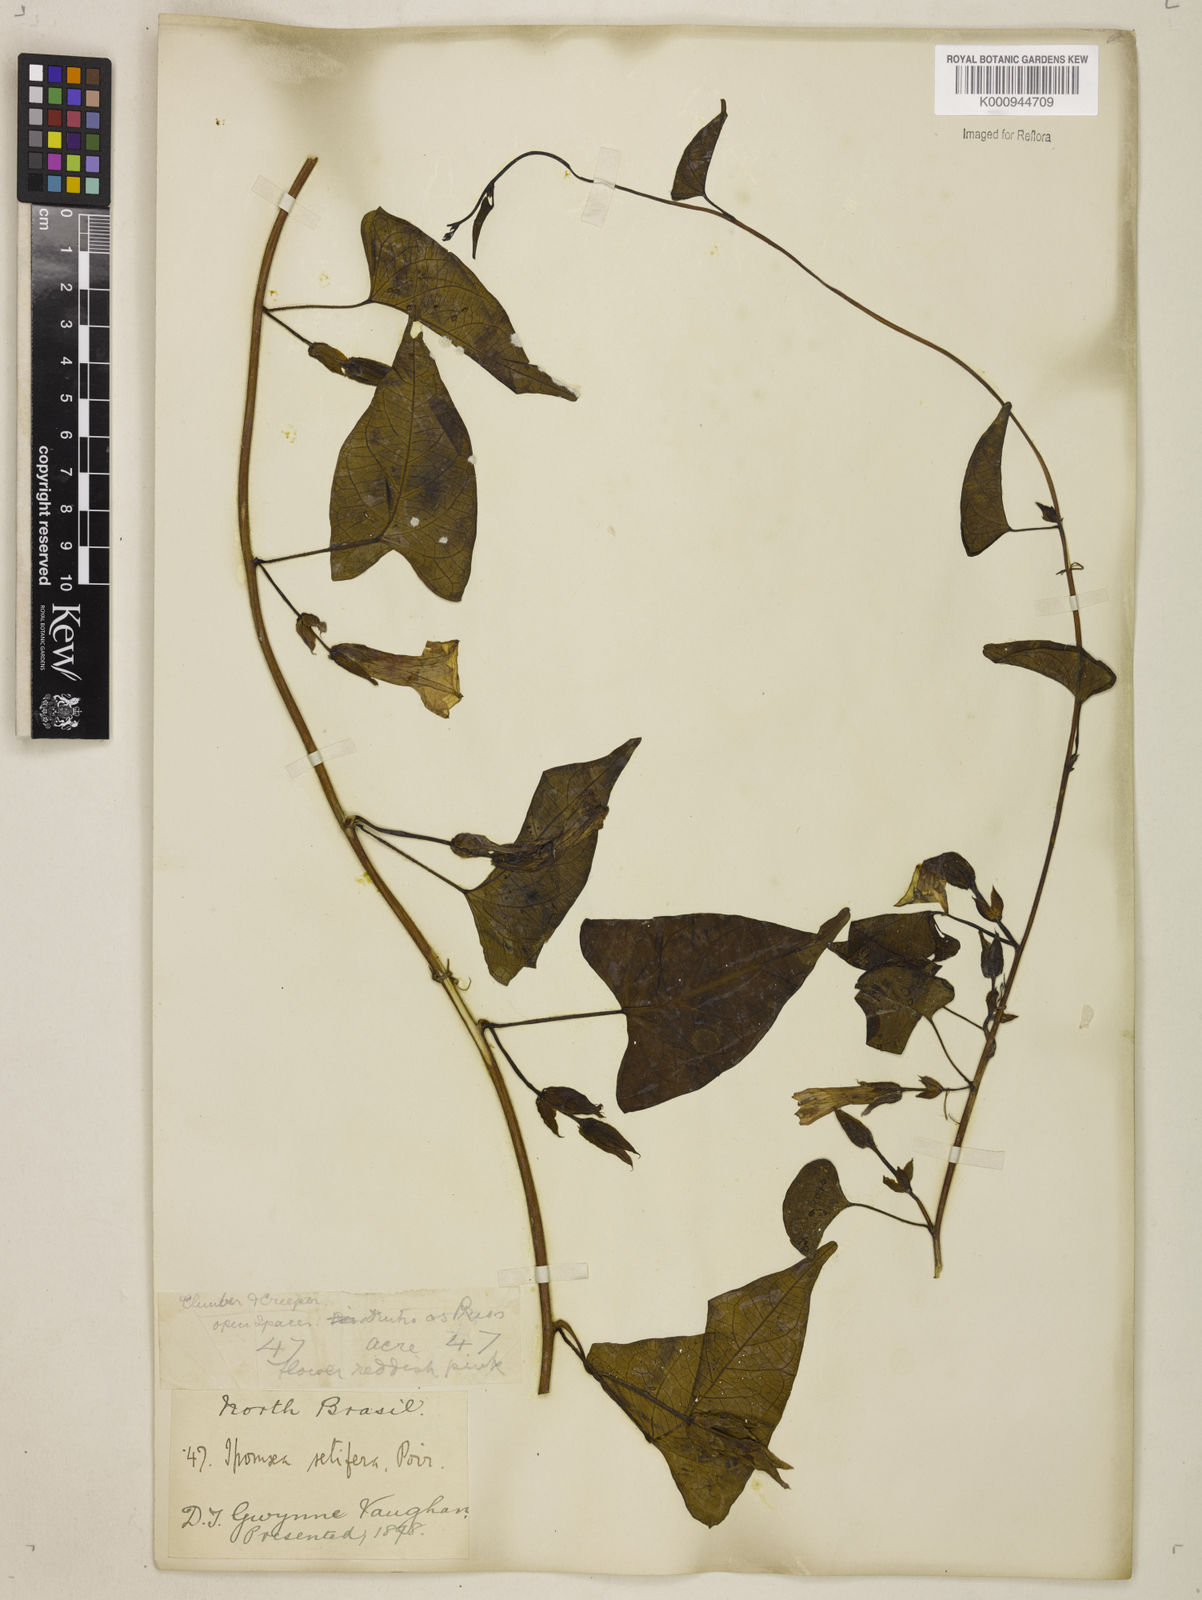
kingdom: Plantae
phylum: Tracheophyta
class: Magnoliopsida
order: Solanales
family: Convolvulaceae
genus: Ipomoea
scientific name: Ipomoea setifera
